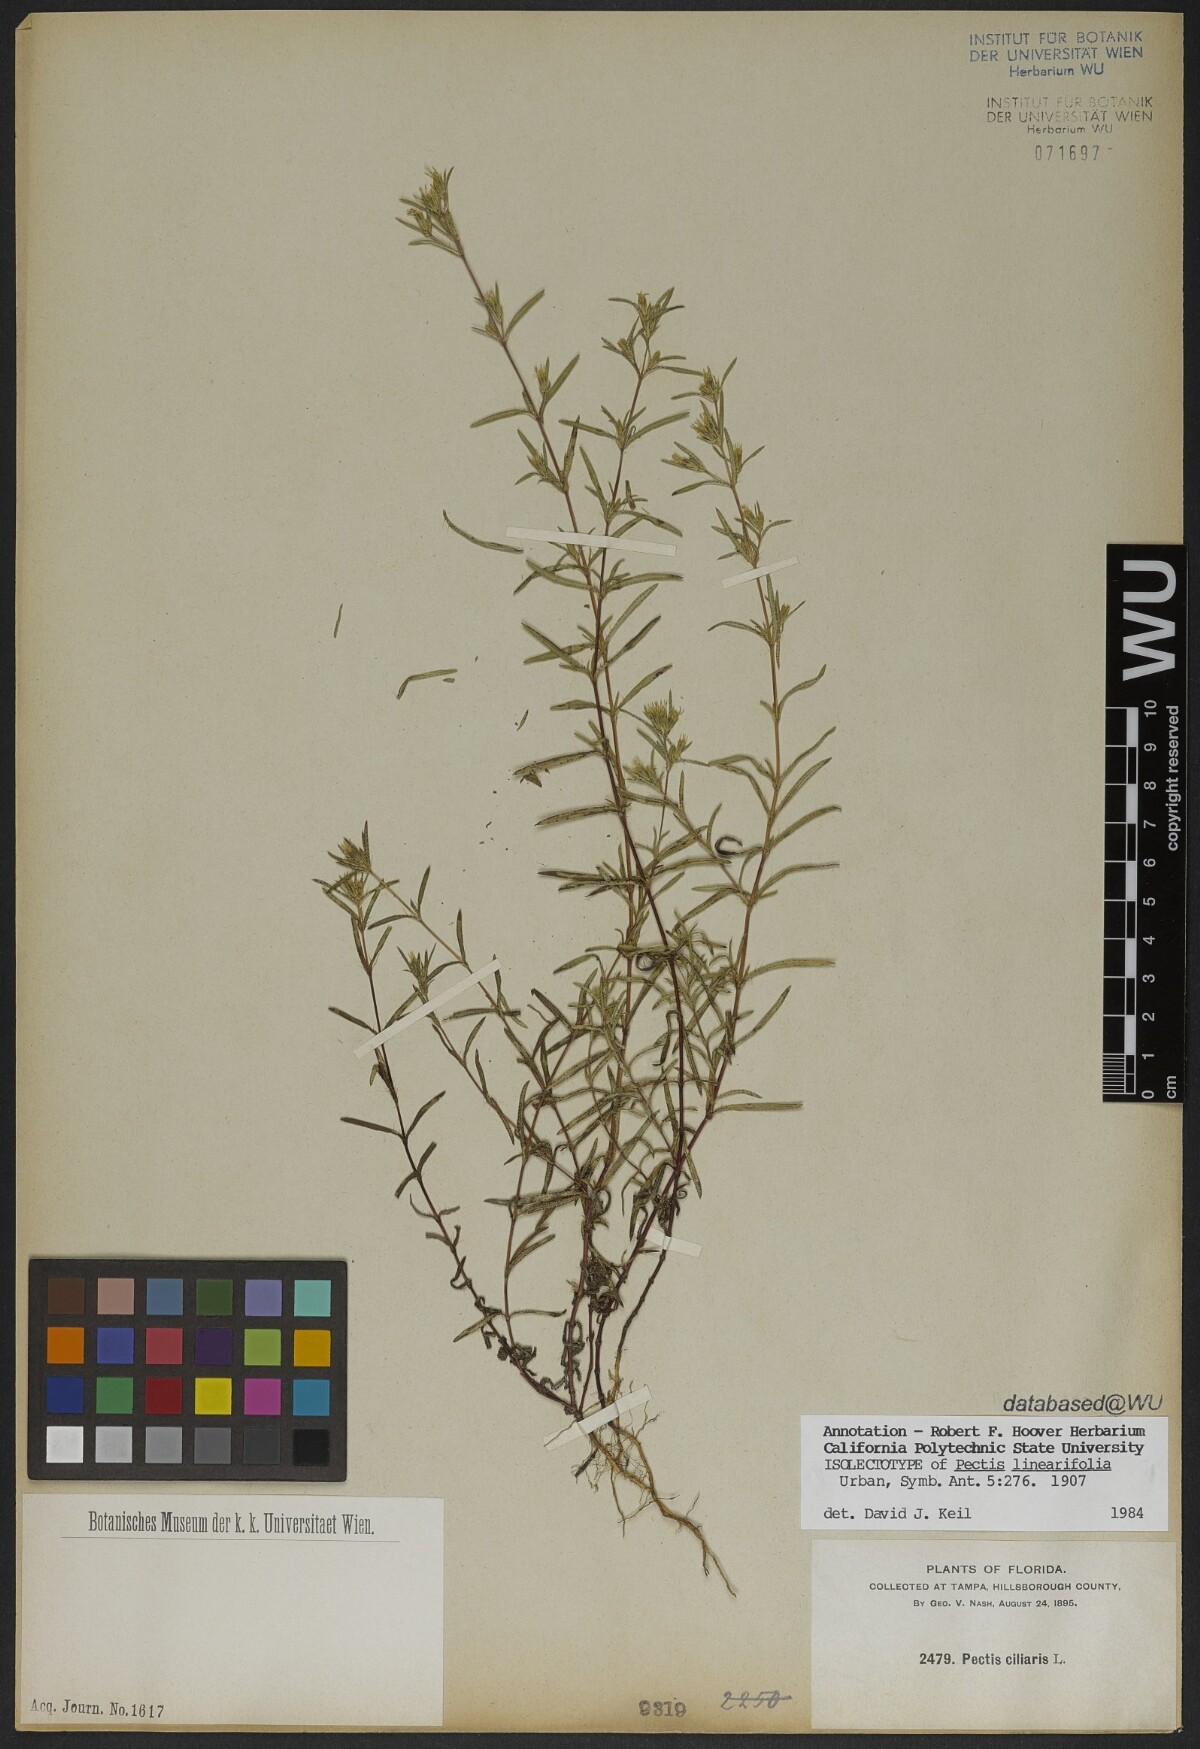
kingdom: Plantae
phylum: Tracheophyta
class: Magnoliopsida
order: Asterales
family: Asteraceae
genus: Pectis
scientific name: Pectis linearifolia
